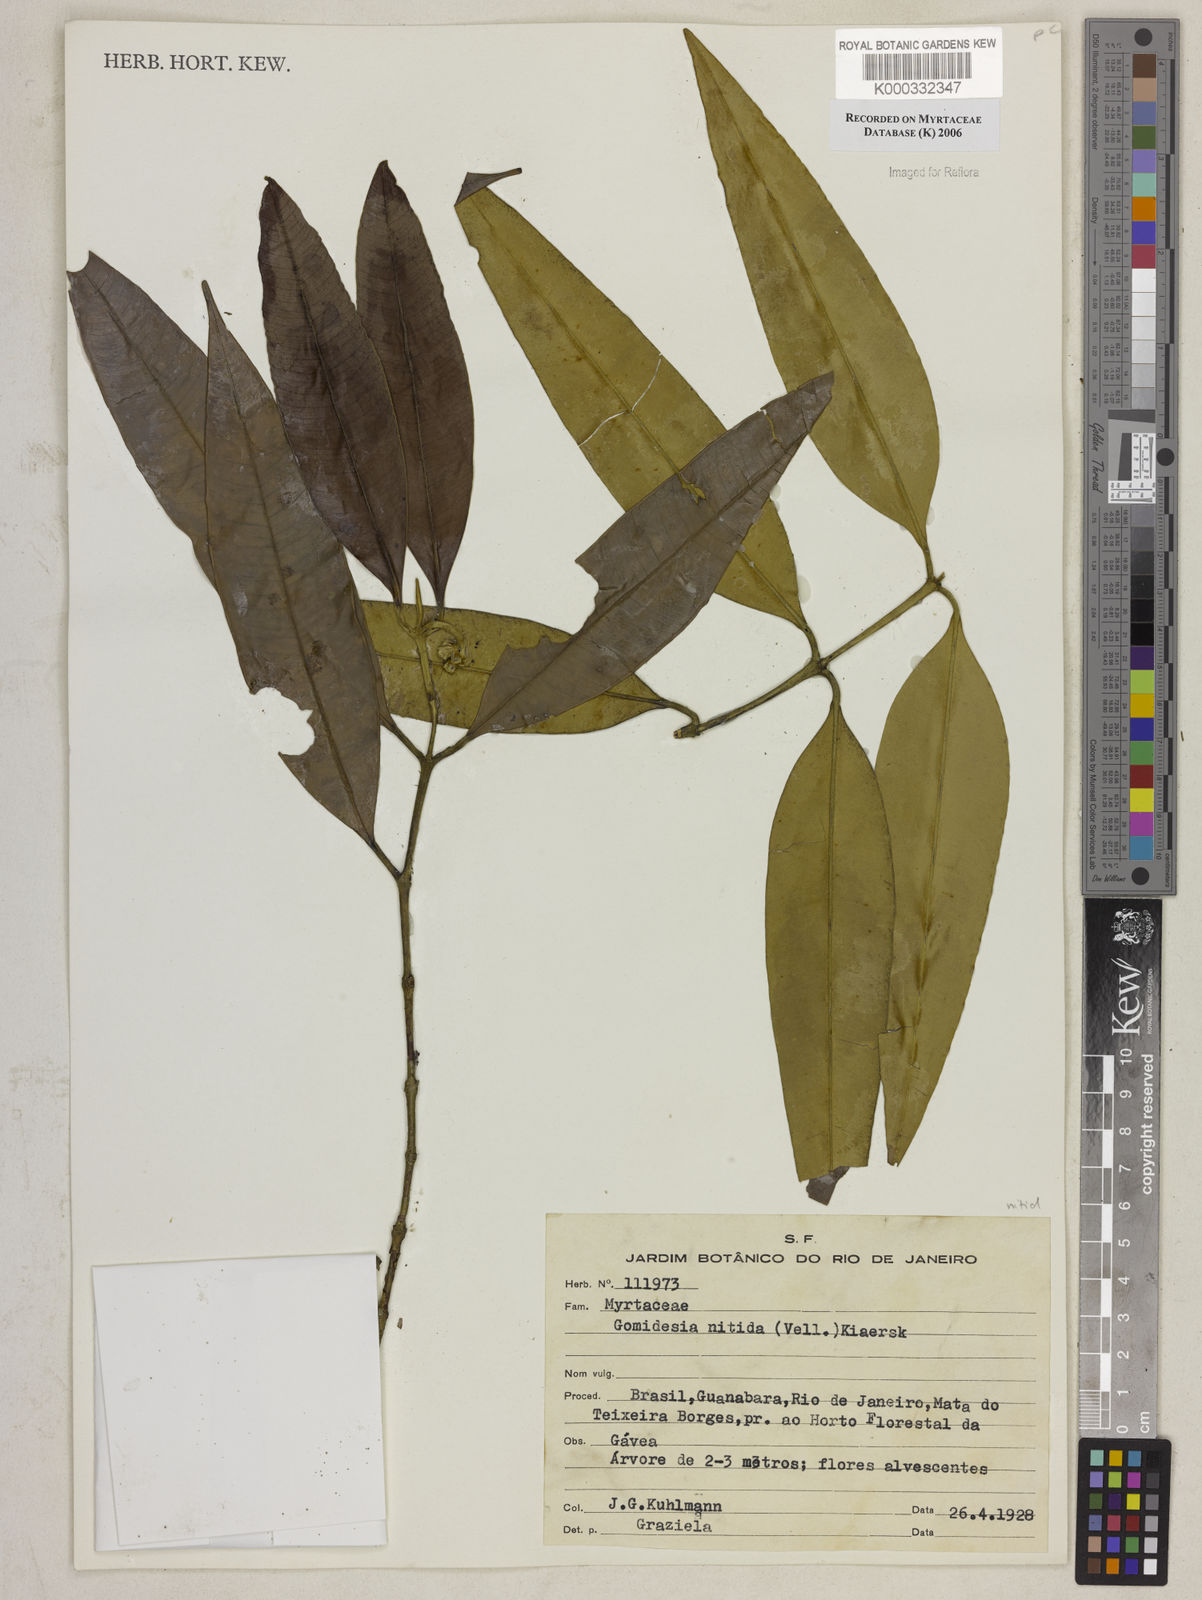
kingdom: Plantae
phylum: Tracheophyta
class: Magnoliopsida
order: Myrtales
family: Myrtaceae
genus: Myrcia
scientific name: Myrcia subsericea
